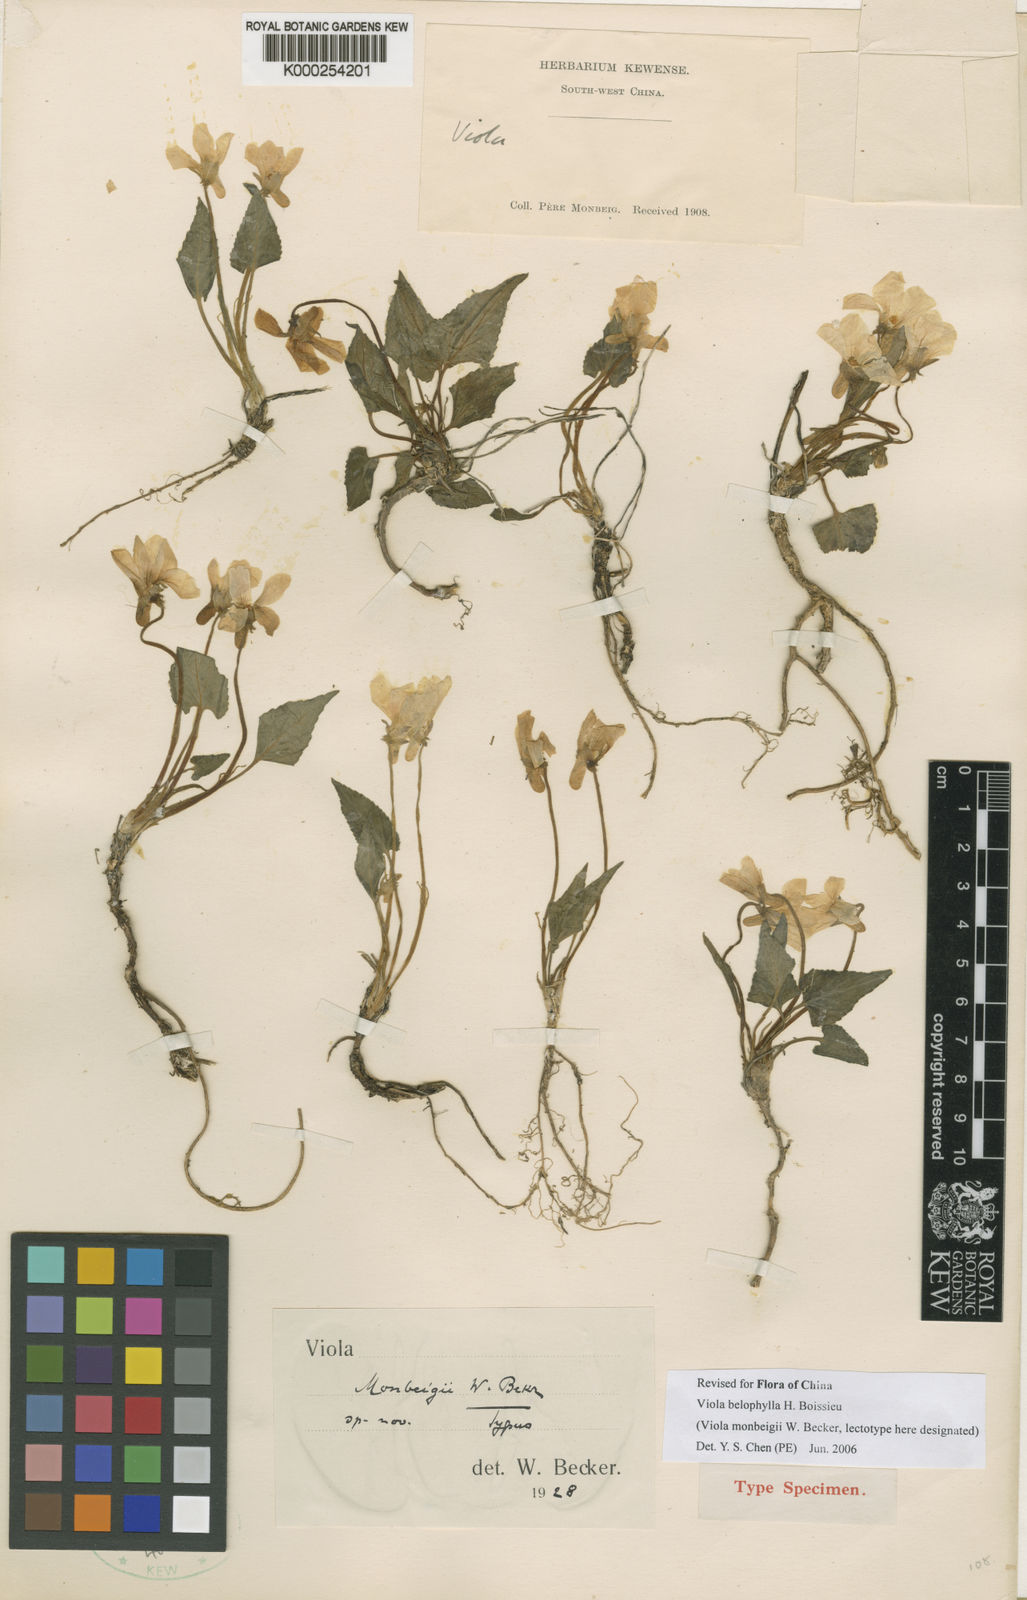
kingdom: Plantae
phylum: Tracheophyta
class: Magnoliopsida
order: Malpighiales
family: Violaceae
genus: Viola
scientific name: Viola belophylla
